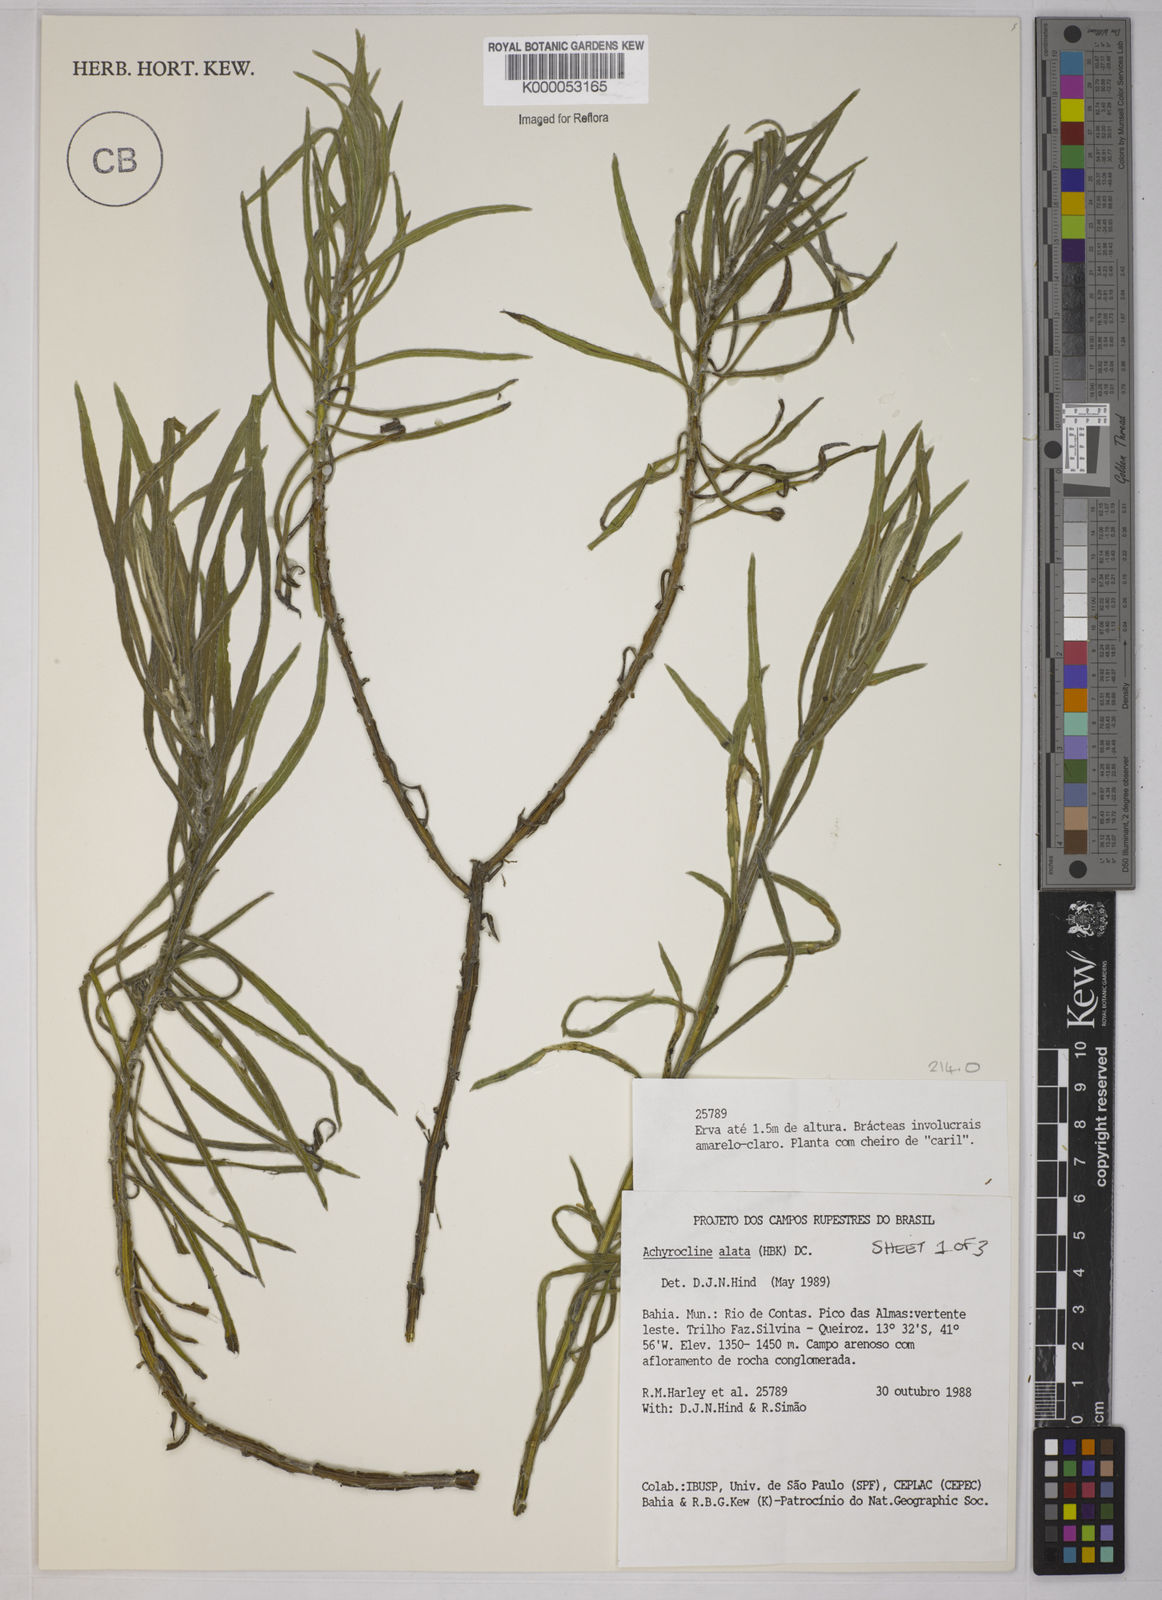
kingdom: Plantae
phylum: Tracheophyta
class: Magnoliopsida
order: Asterales
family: Asteraceae
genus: Achyrocline
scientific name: Achyrocline alata
